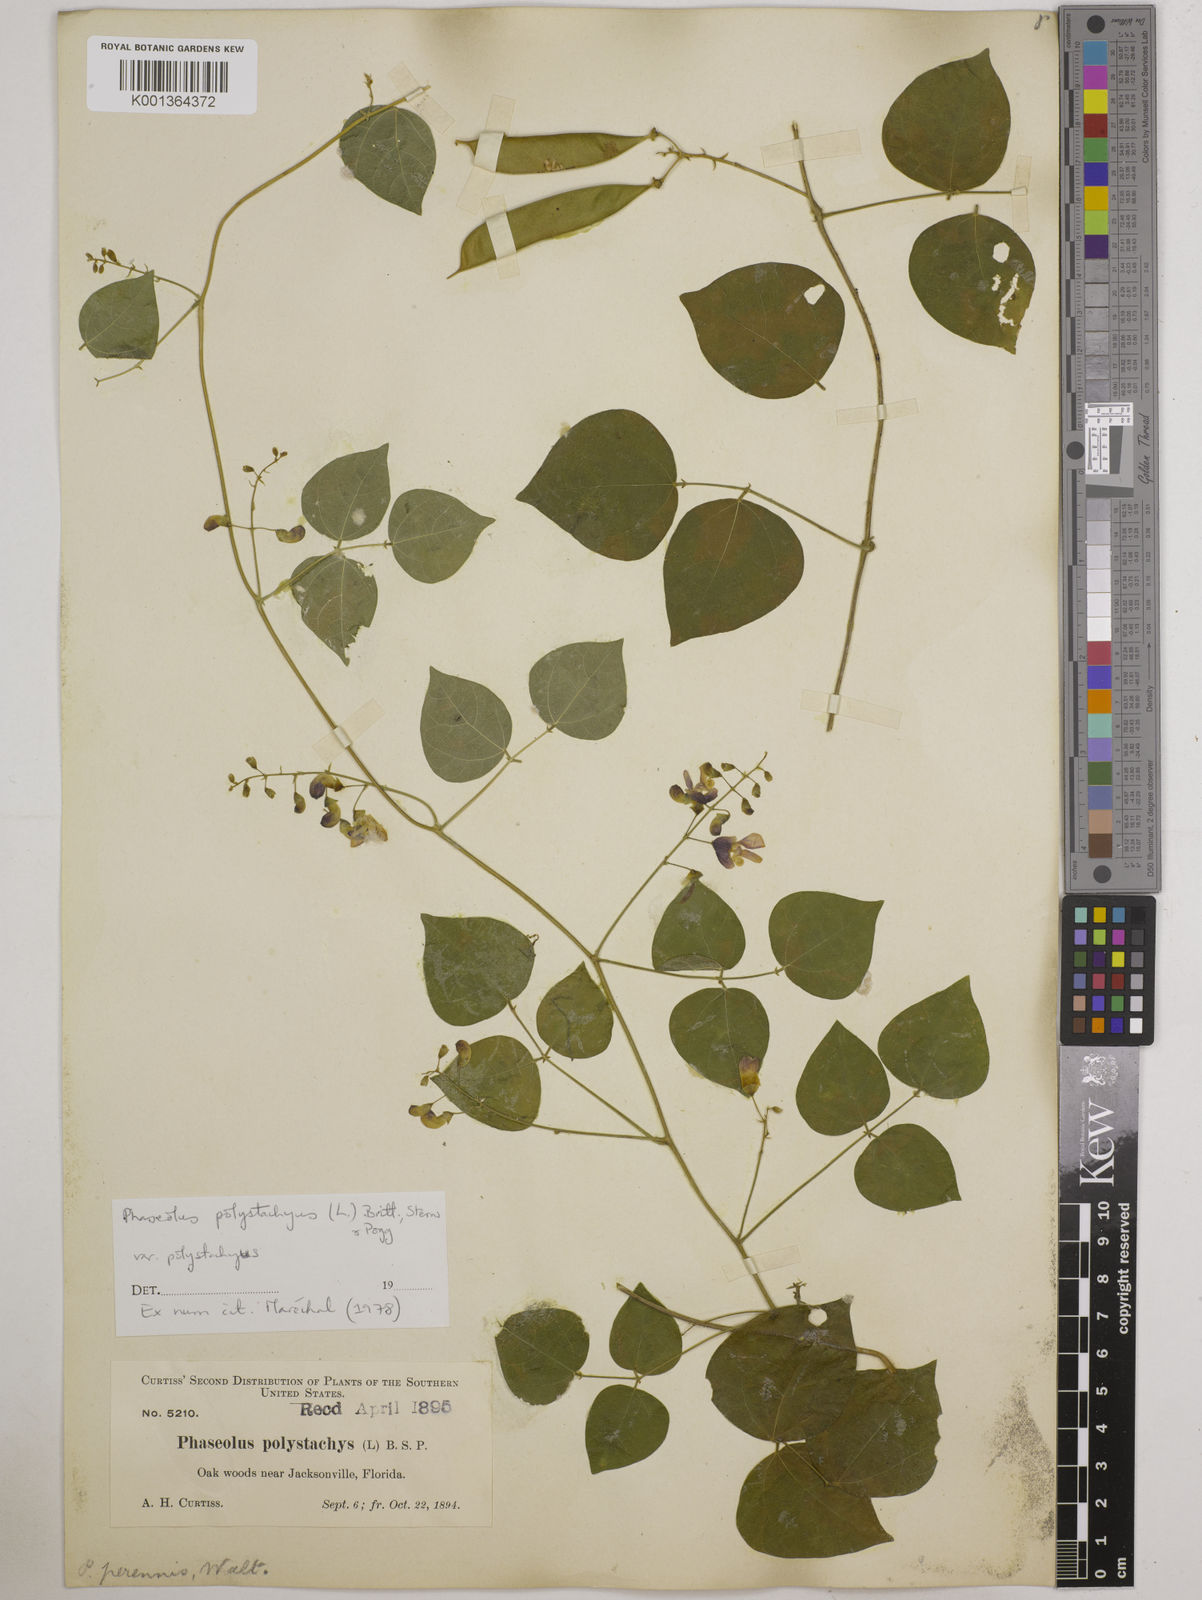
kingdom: Plantae
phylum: Tracheophyta
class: Magnoliopsida
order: Fabales
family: Fabaceae
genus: Phaseolus
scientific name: Phaseolus
